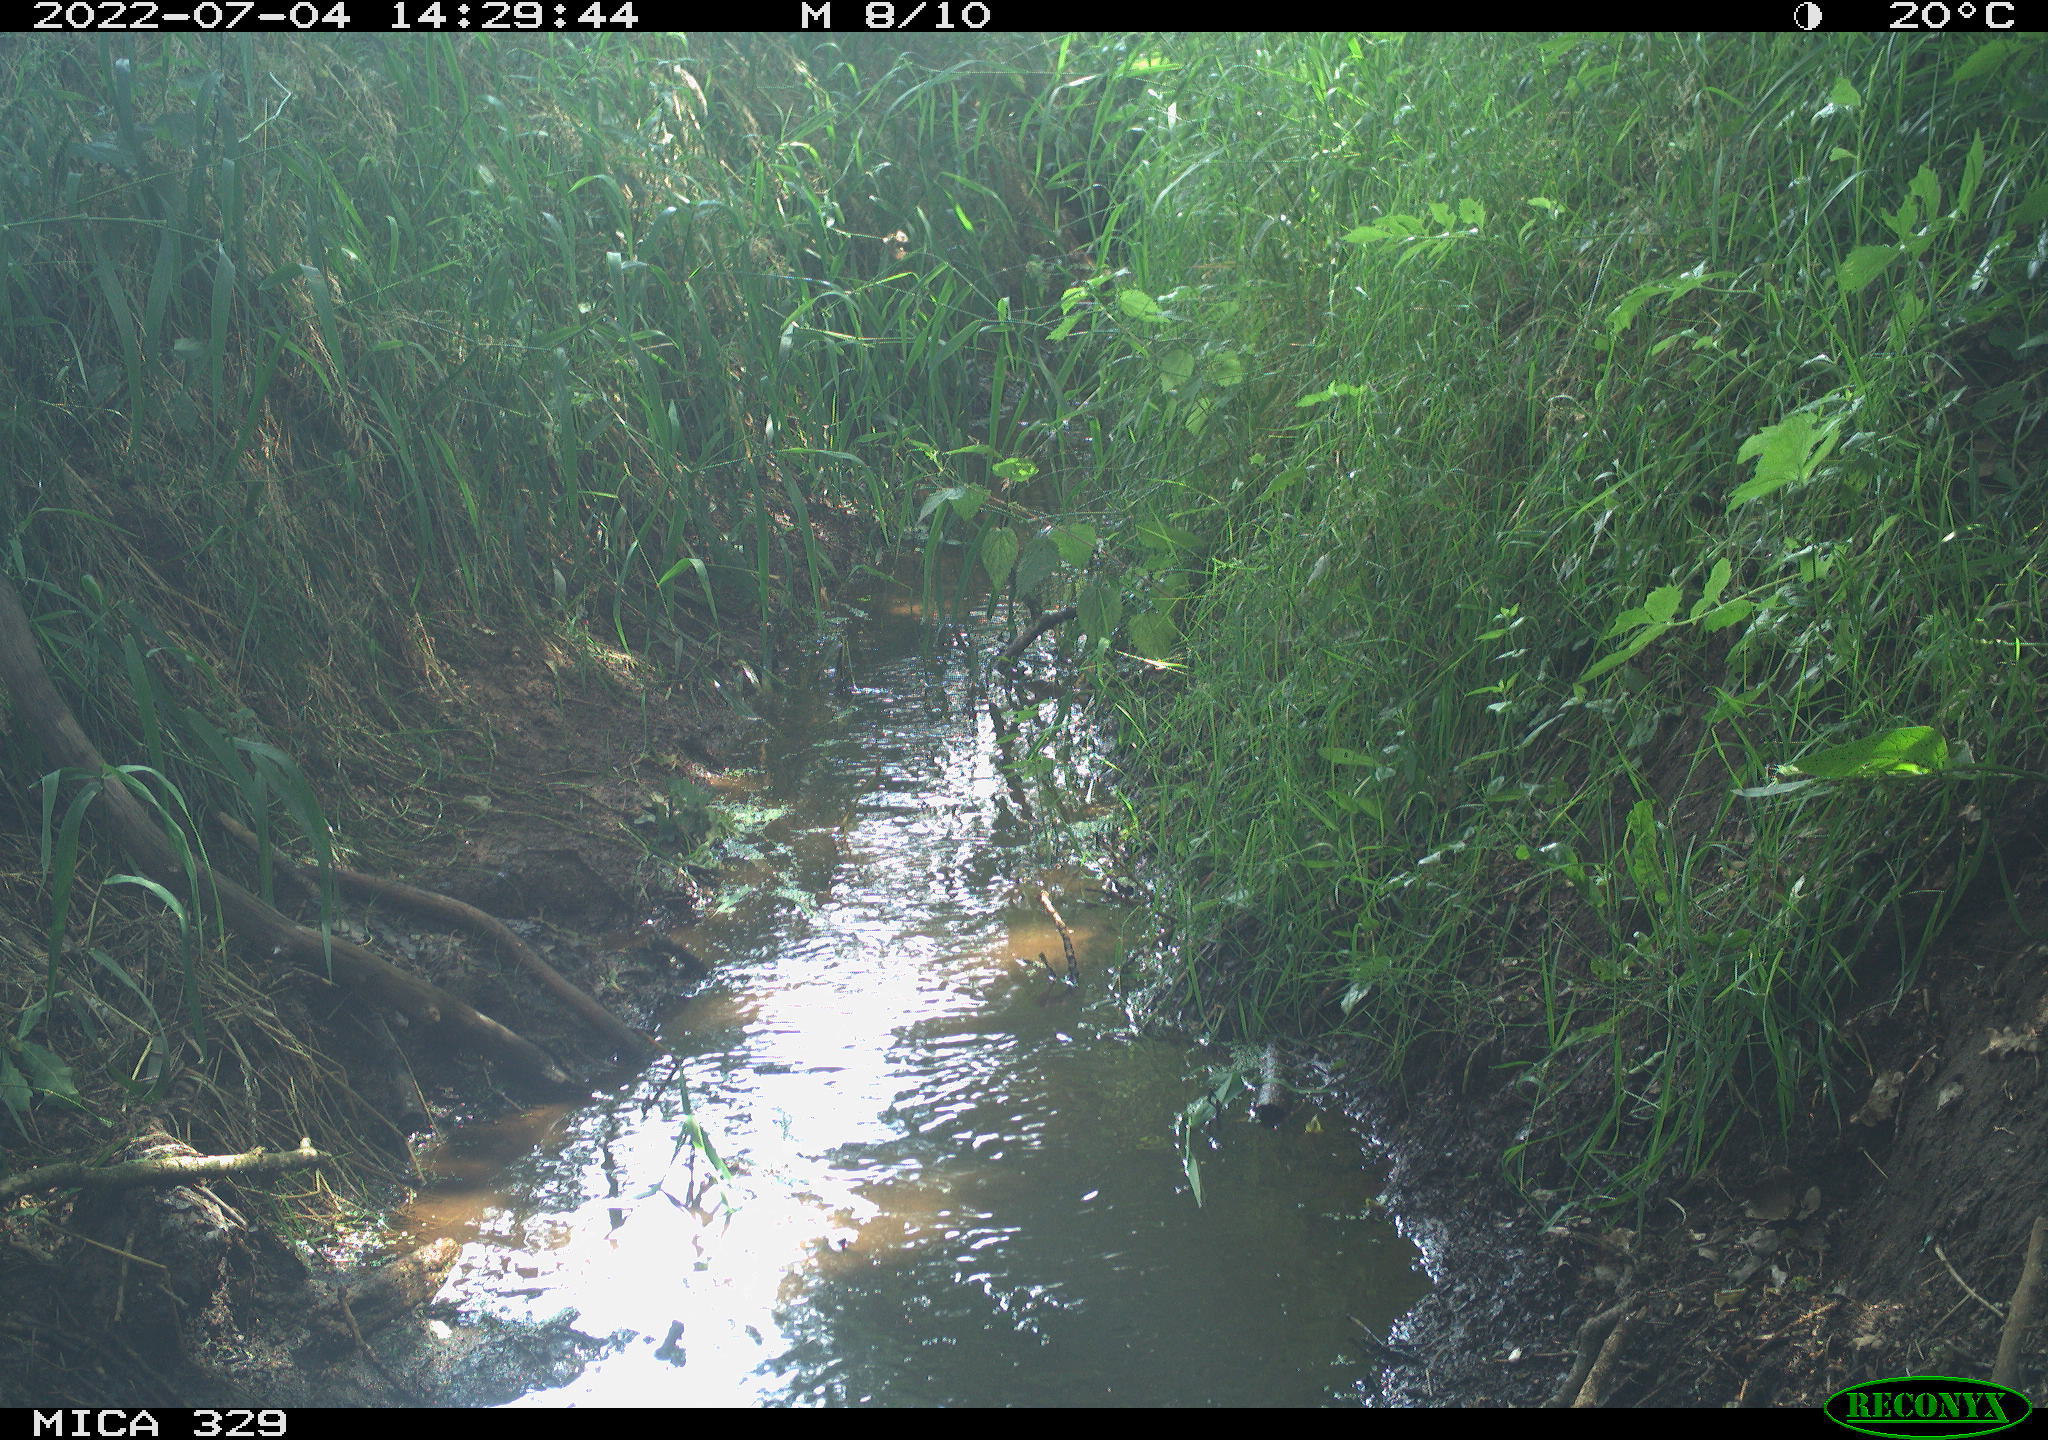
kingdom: Animalia
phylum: Chordata
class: Aves
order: Anseriformes
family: Anatidae
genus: Anas
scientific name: Anas
